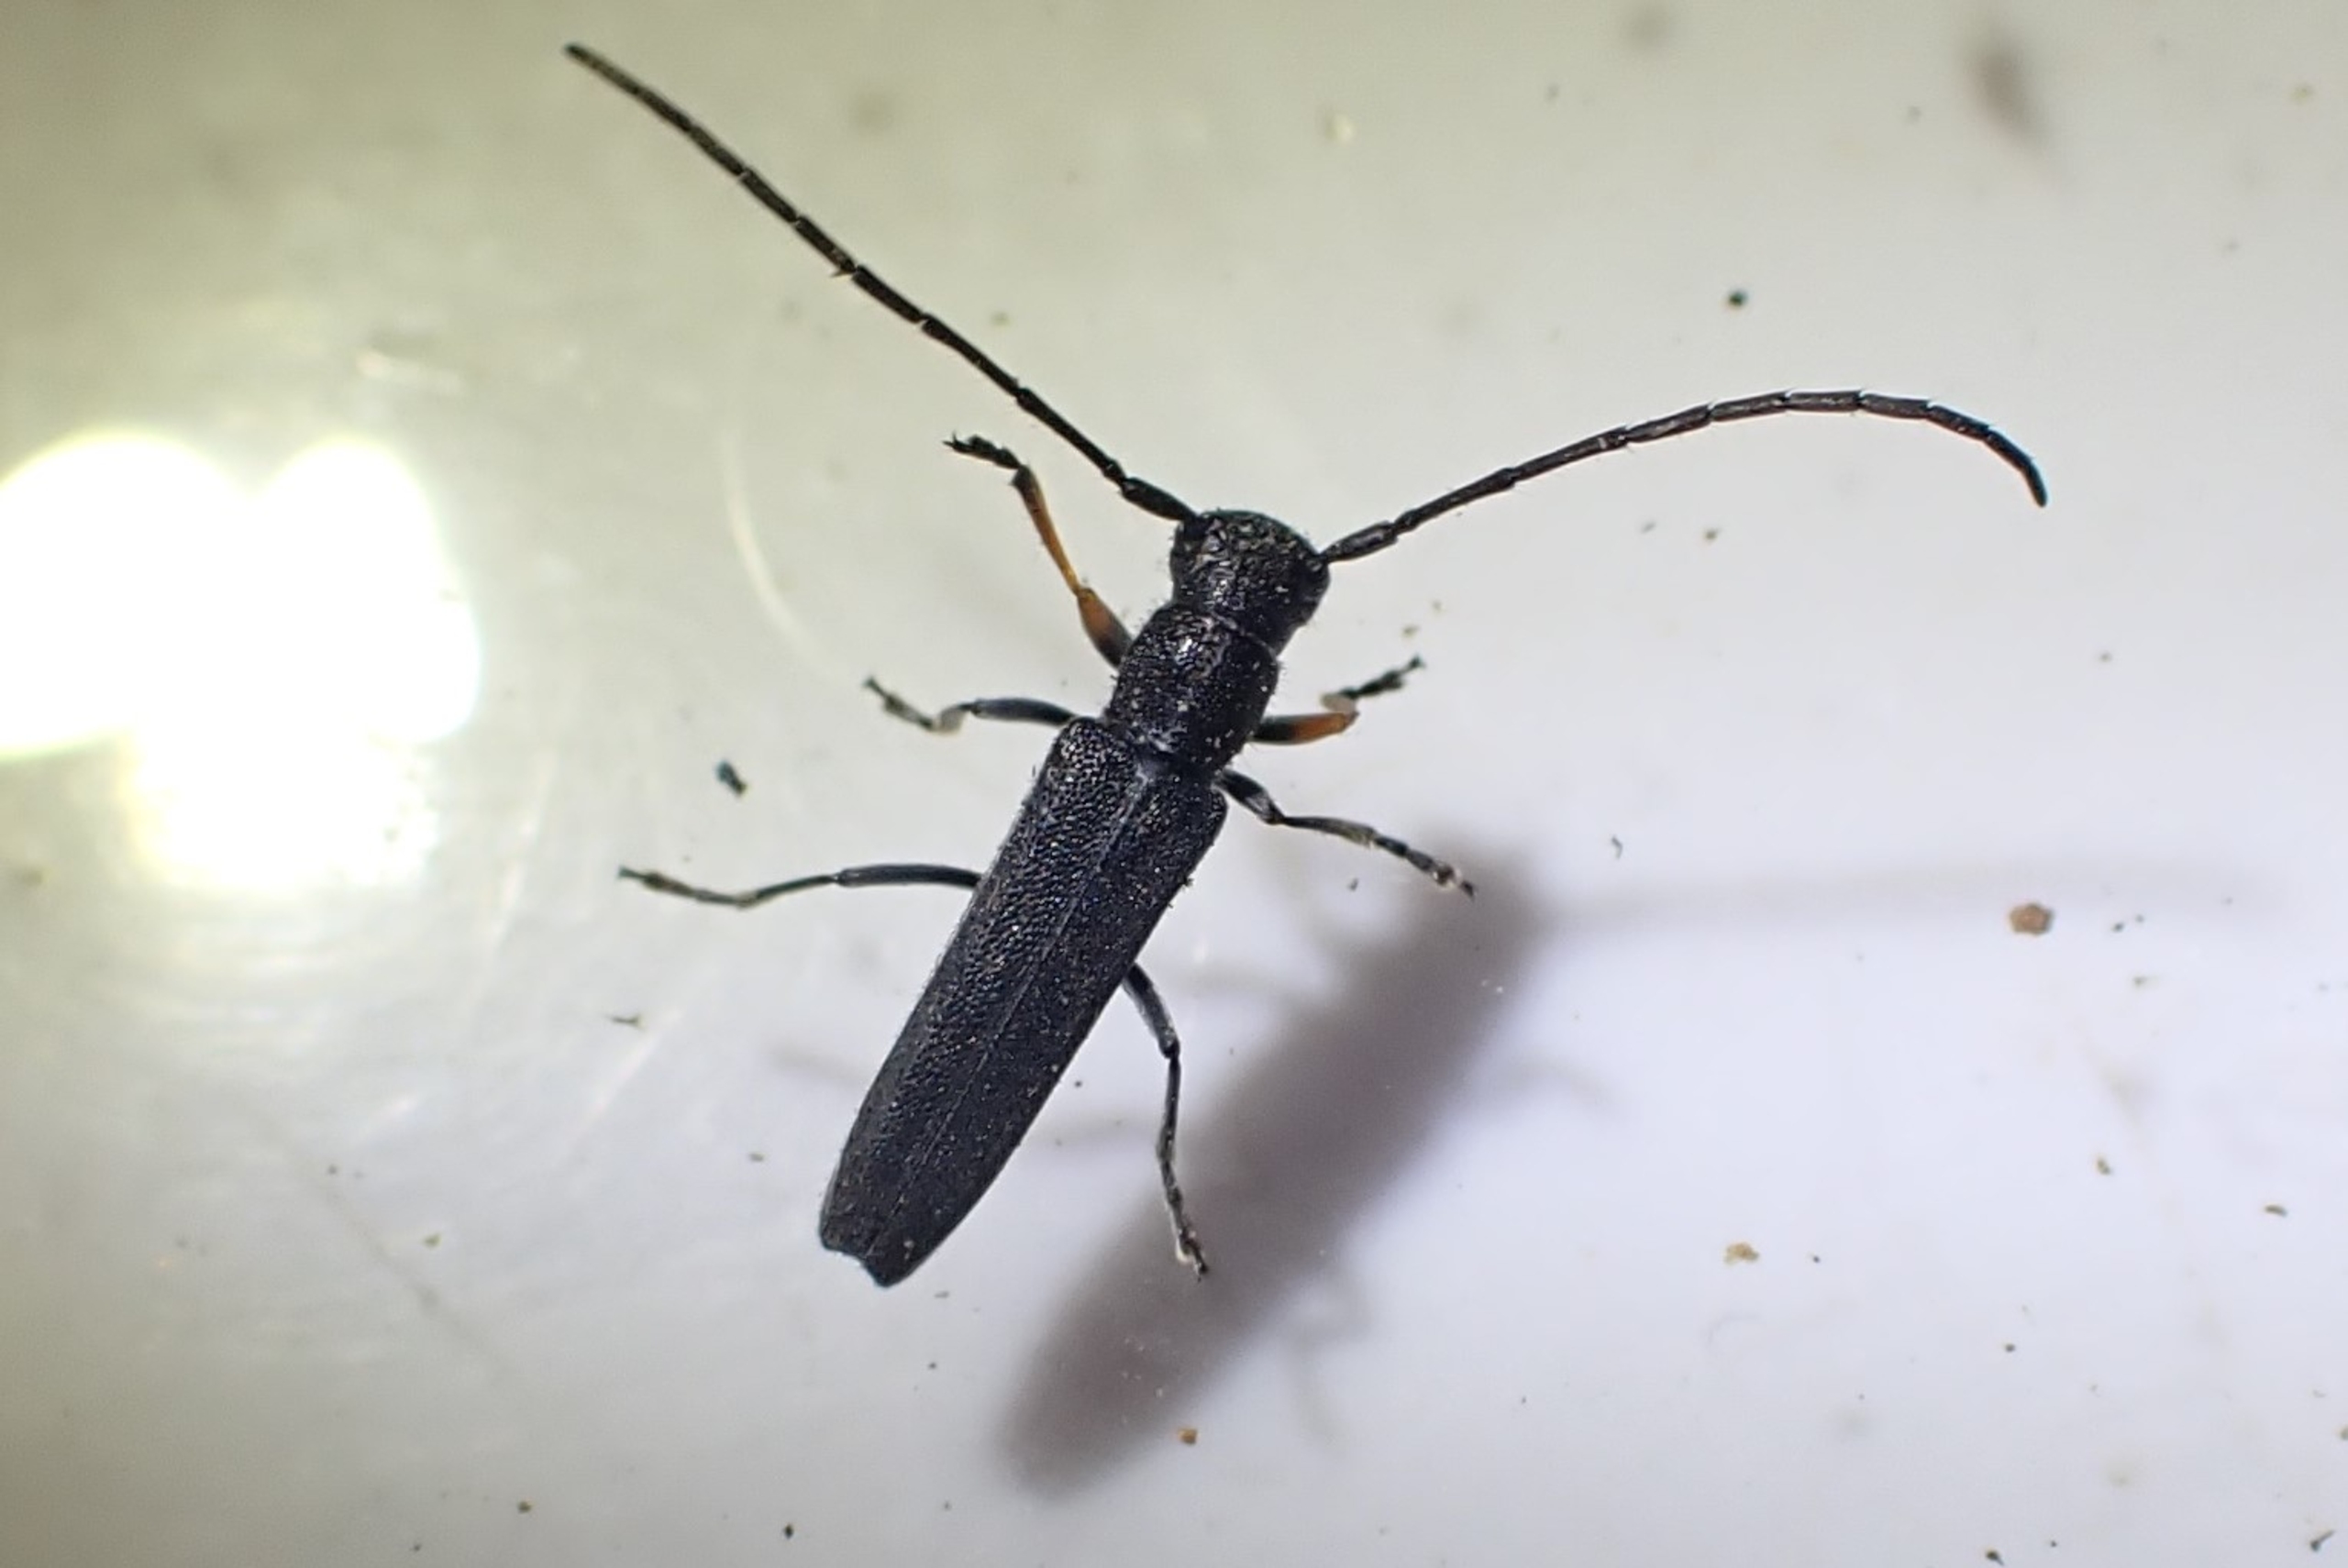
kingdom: Animalia
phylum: Arthropoda
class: Insecta
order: Coleoptera
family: Cerambycidae
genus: Phytoecia
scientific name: Phytoecia cylindrica
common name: Kørvelbuk
